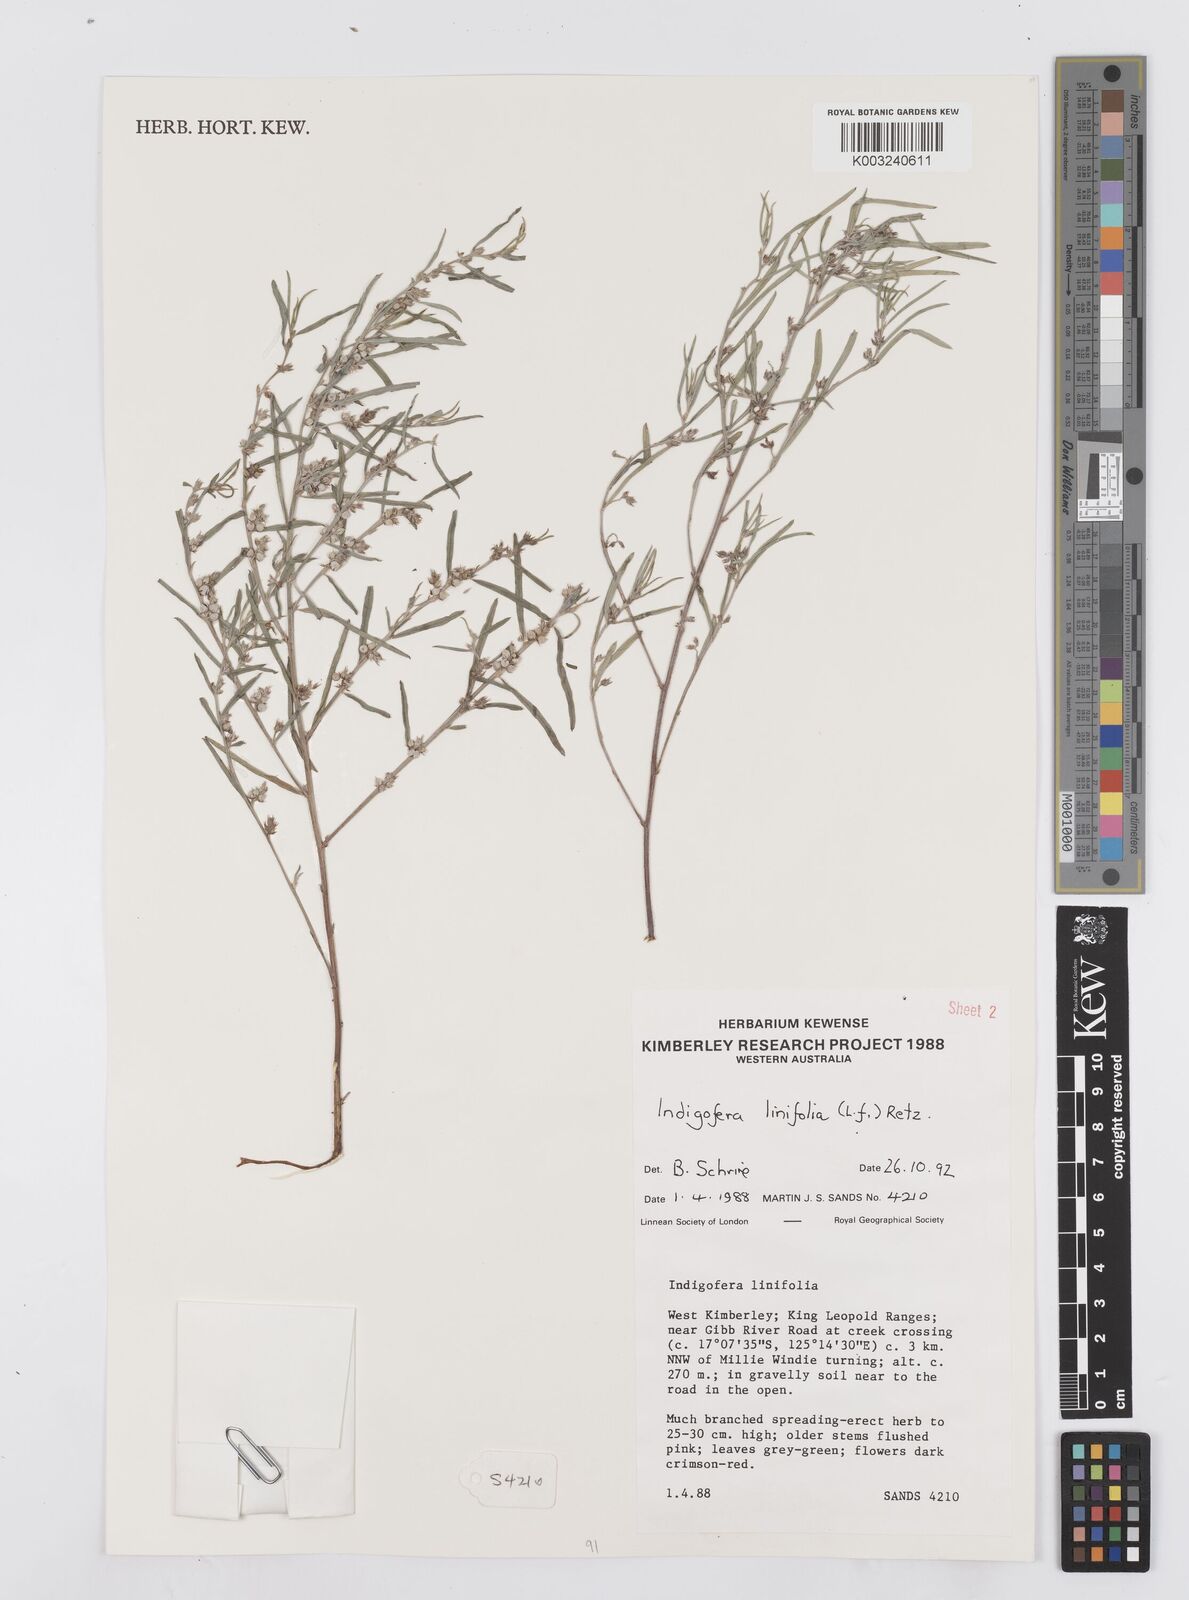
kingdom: Plantae
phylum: Tracheophyta
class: Magnoliopsida
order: Fabales
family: Fabaceae
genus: Indigofera
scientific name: Indigofera linifolia
